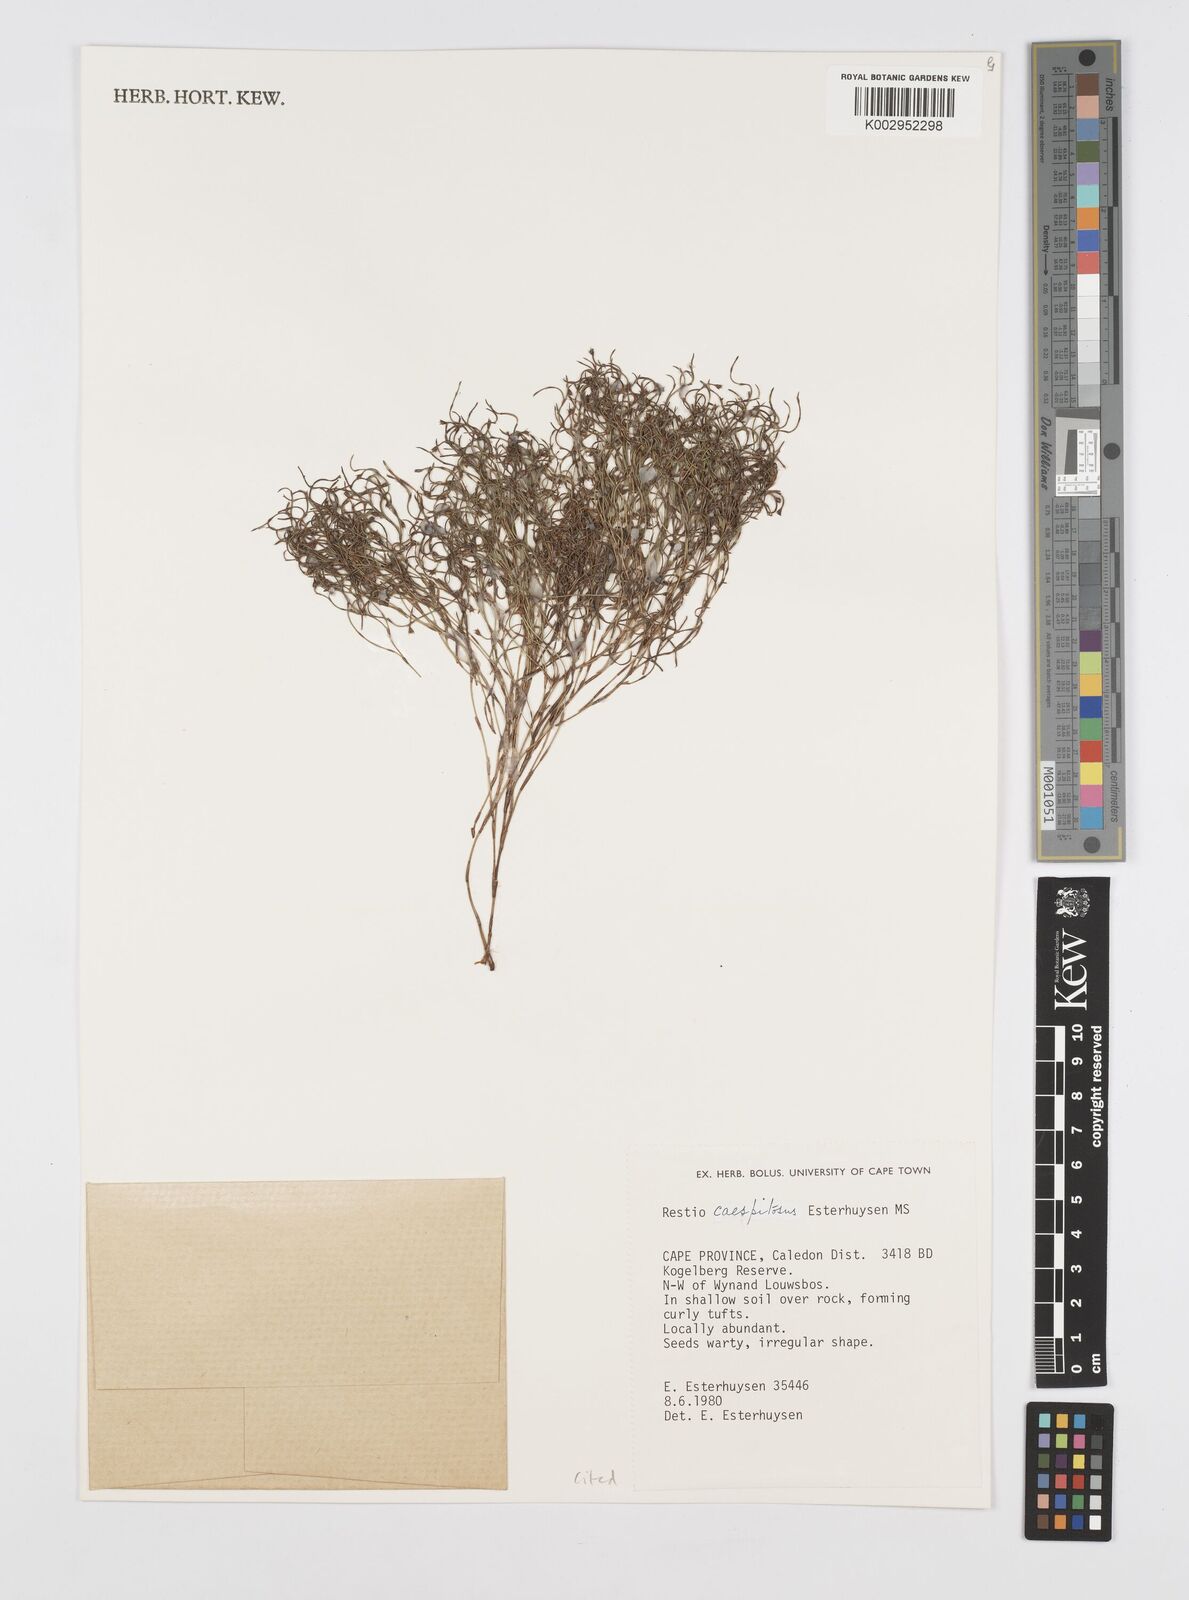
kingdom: Plantae
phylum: Tracheophyta
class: Liliopsida
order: Poales
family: Restionaceae
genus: Restio
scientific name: Restio caespitosus
